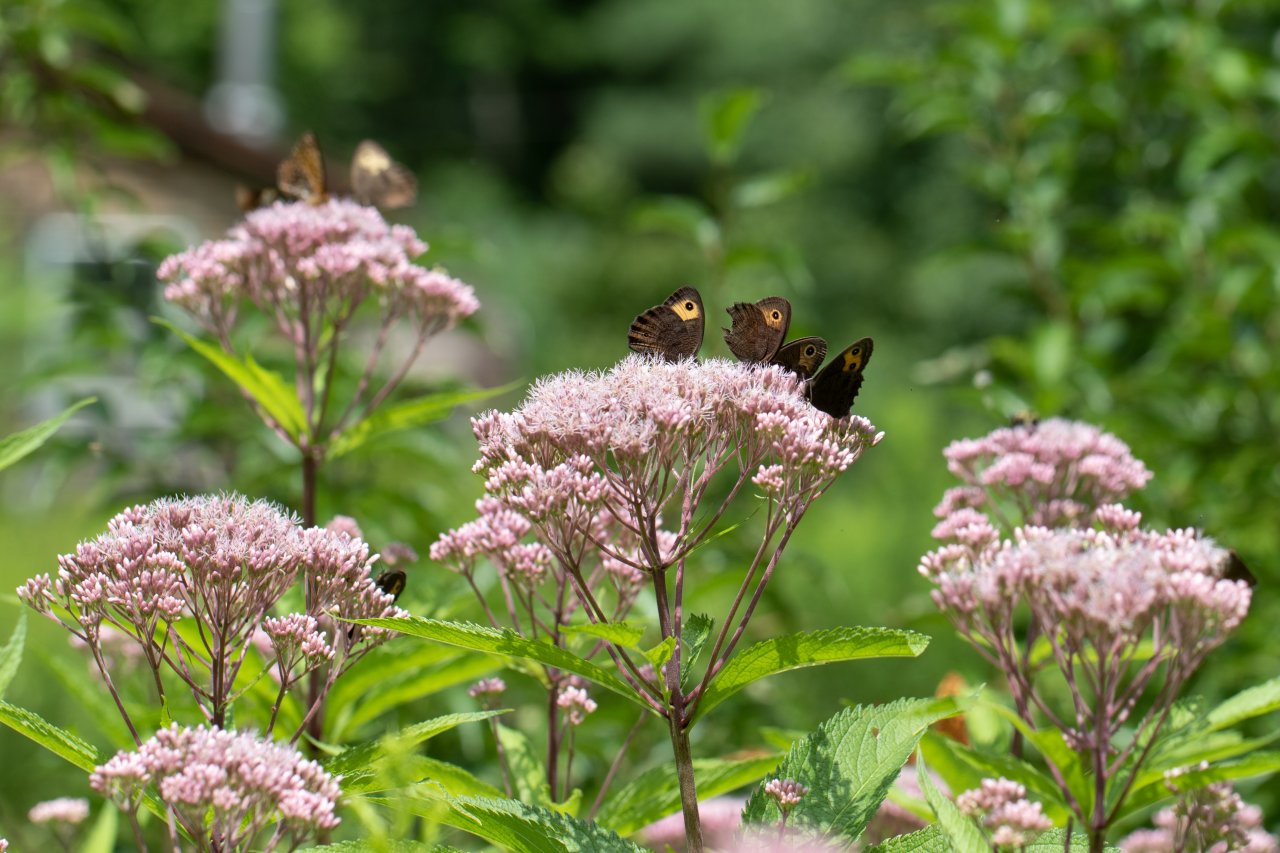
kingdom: Animalia
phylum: Arthropoda
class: Insecta
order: Lepidoptera
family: Nymphalidae
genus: Cercyonis
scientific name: Cercyonis pegala
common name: Common Wood-Nymph
